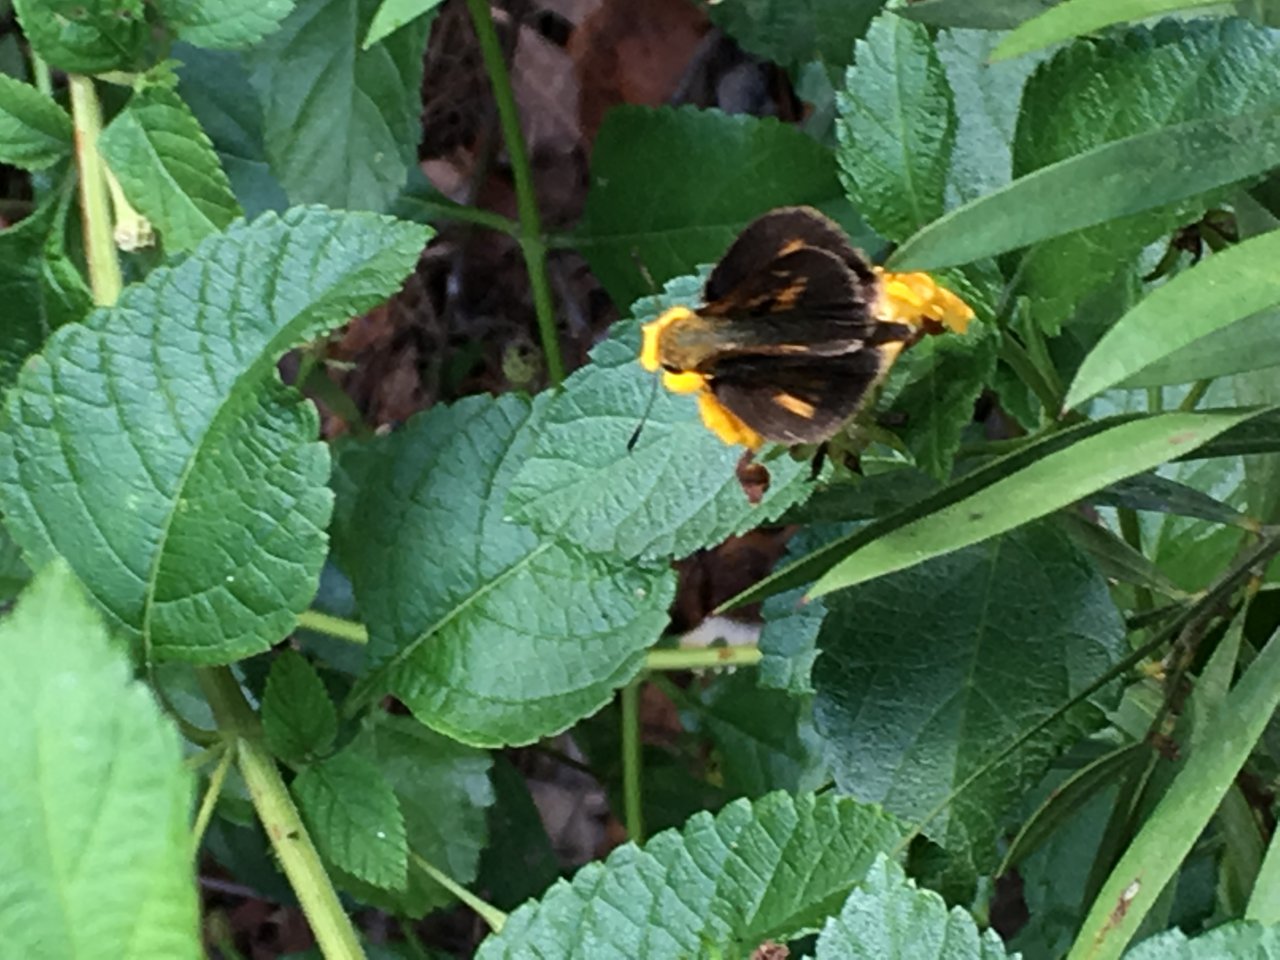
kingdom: Animalia
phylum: Arthropoda
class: Insecta
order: Lepidoptera
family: Hesperiidae
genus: Euphyes
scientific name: Euphyes dion
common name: Dion Skipper
